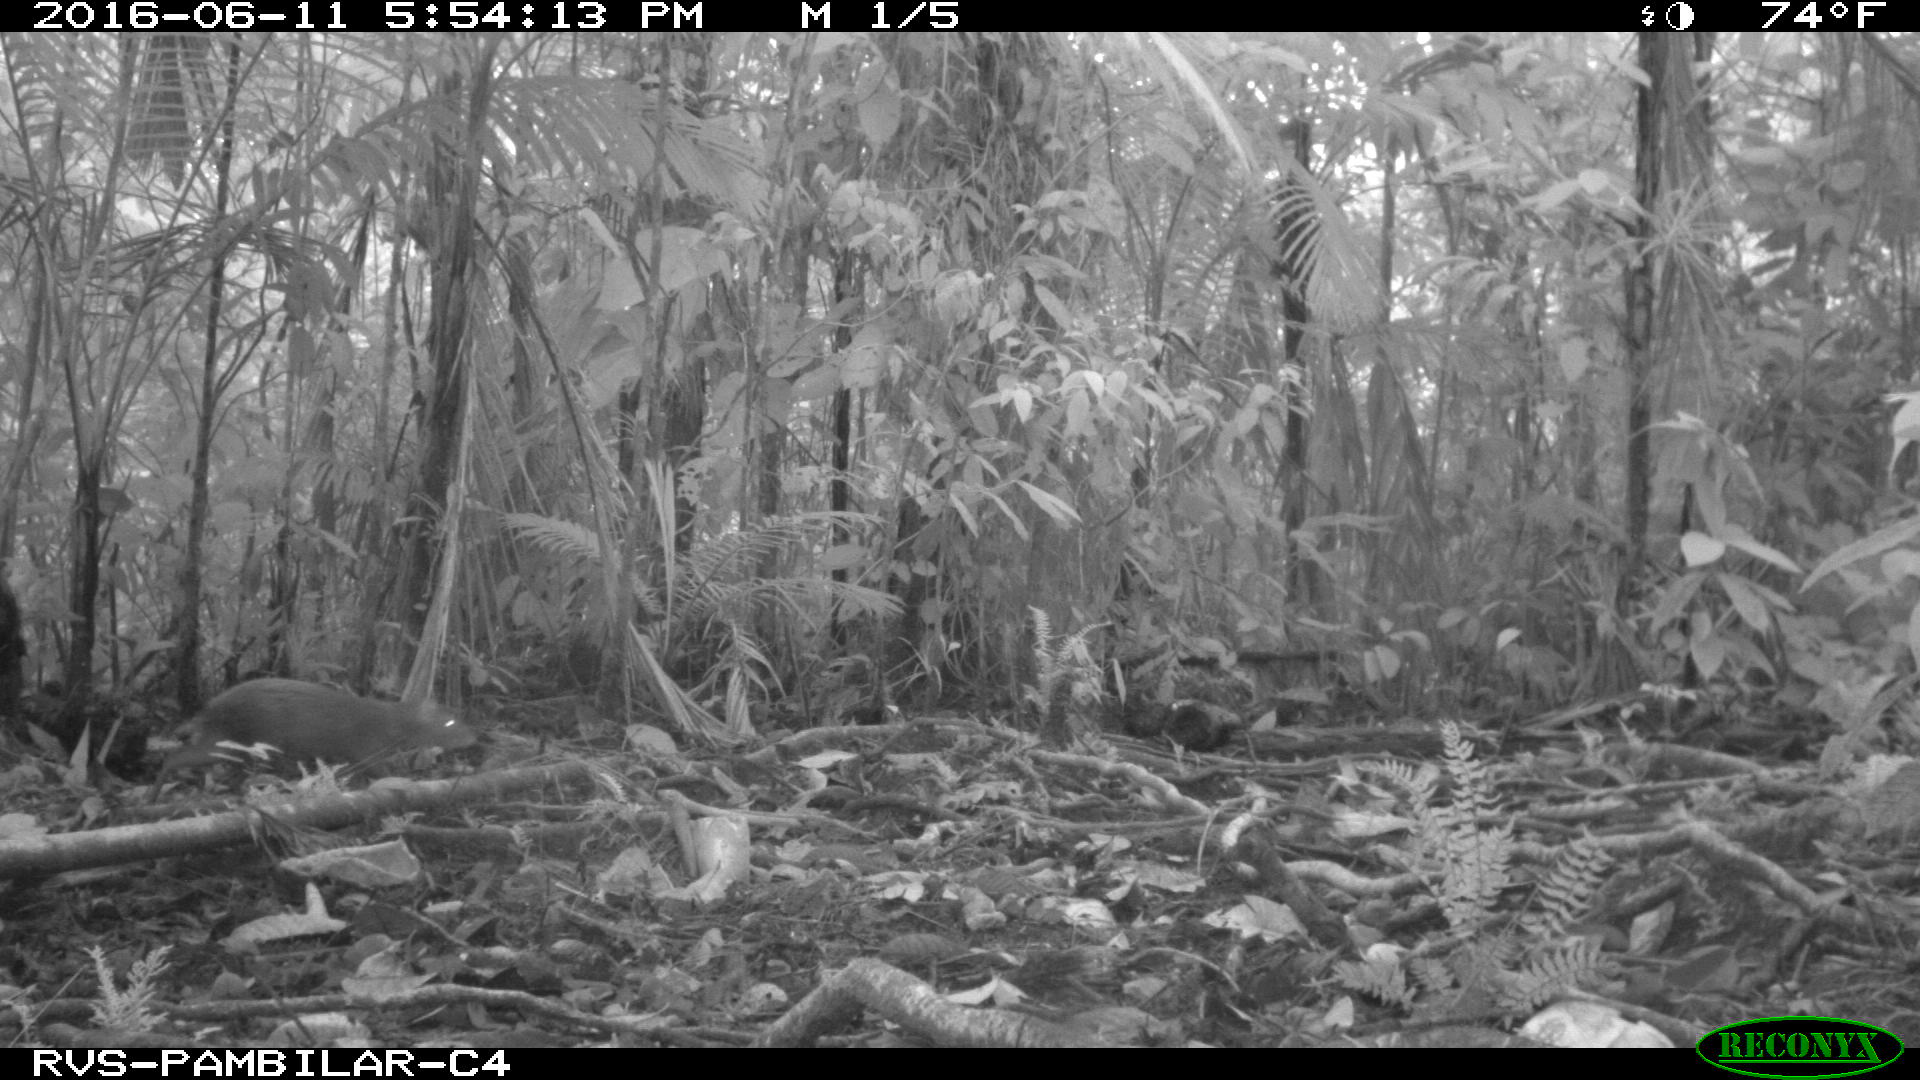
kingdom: Animalia
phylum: Chordata
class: Mammalia
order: Rodentia
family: Dasyproctidae
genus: Dasyprocta
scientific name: Dasyprocta punctata
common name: Central american agouti
